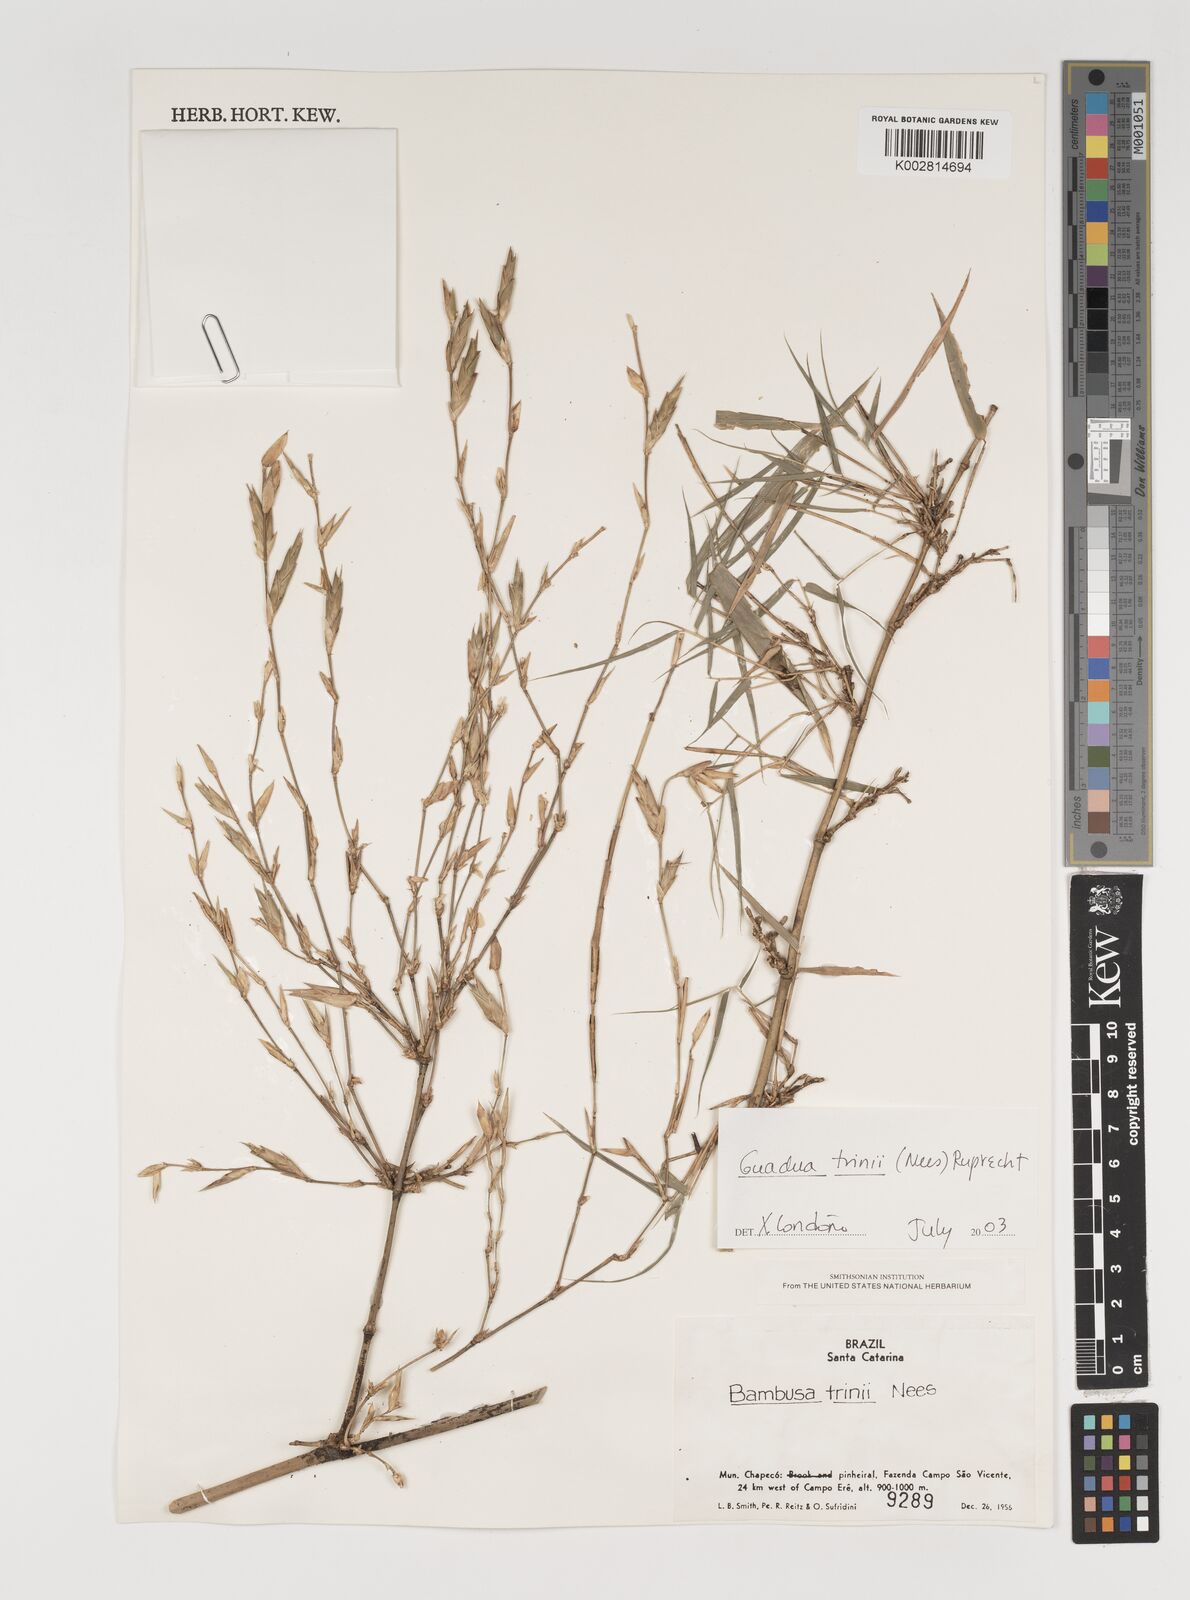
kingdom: Plantae
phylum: Tracheophyta
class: Liliopsida
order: Poales
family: Poaceae
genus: Guadua
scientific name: Guadua trinii
